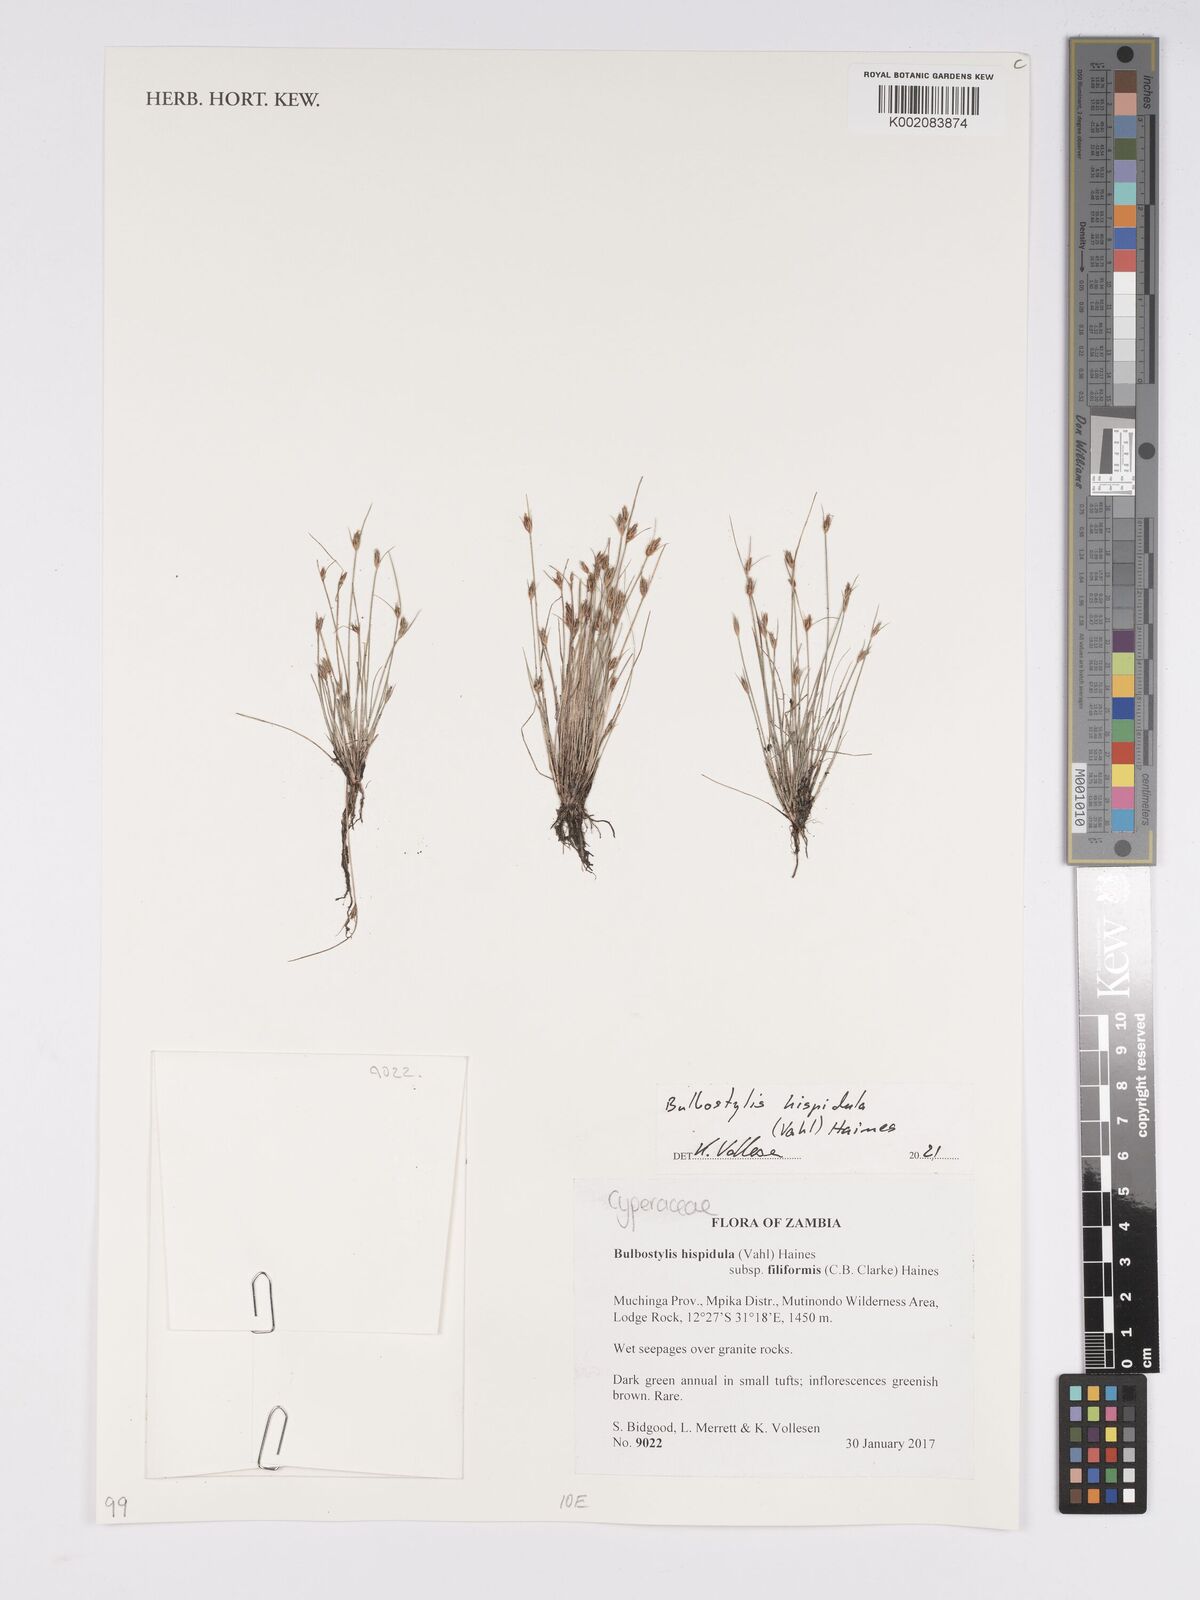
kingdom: Plantae
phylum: Tracheophyta
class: Liliopsida
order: Poales
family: Cyperaceae
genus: Bulbostylis
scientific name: Bulbostylis hispidula
